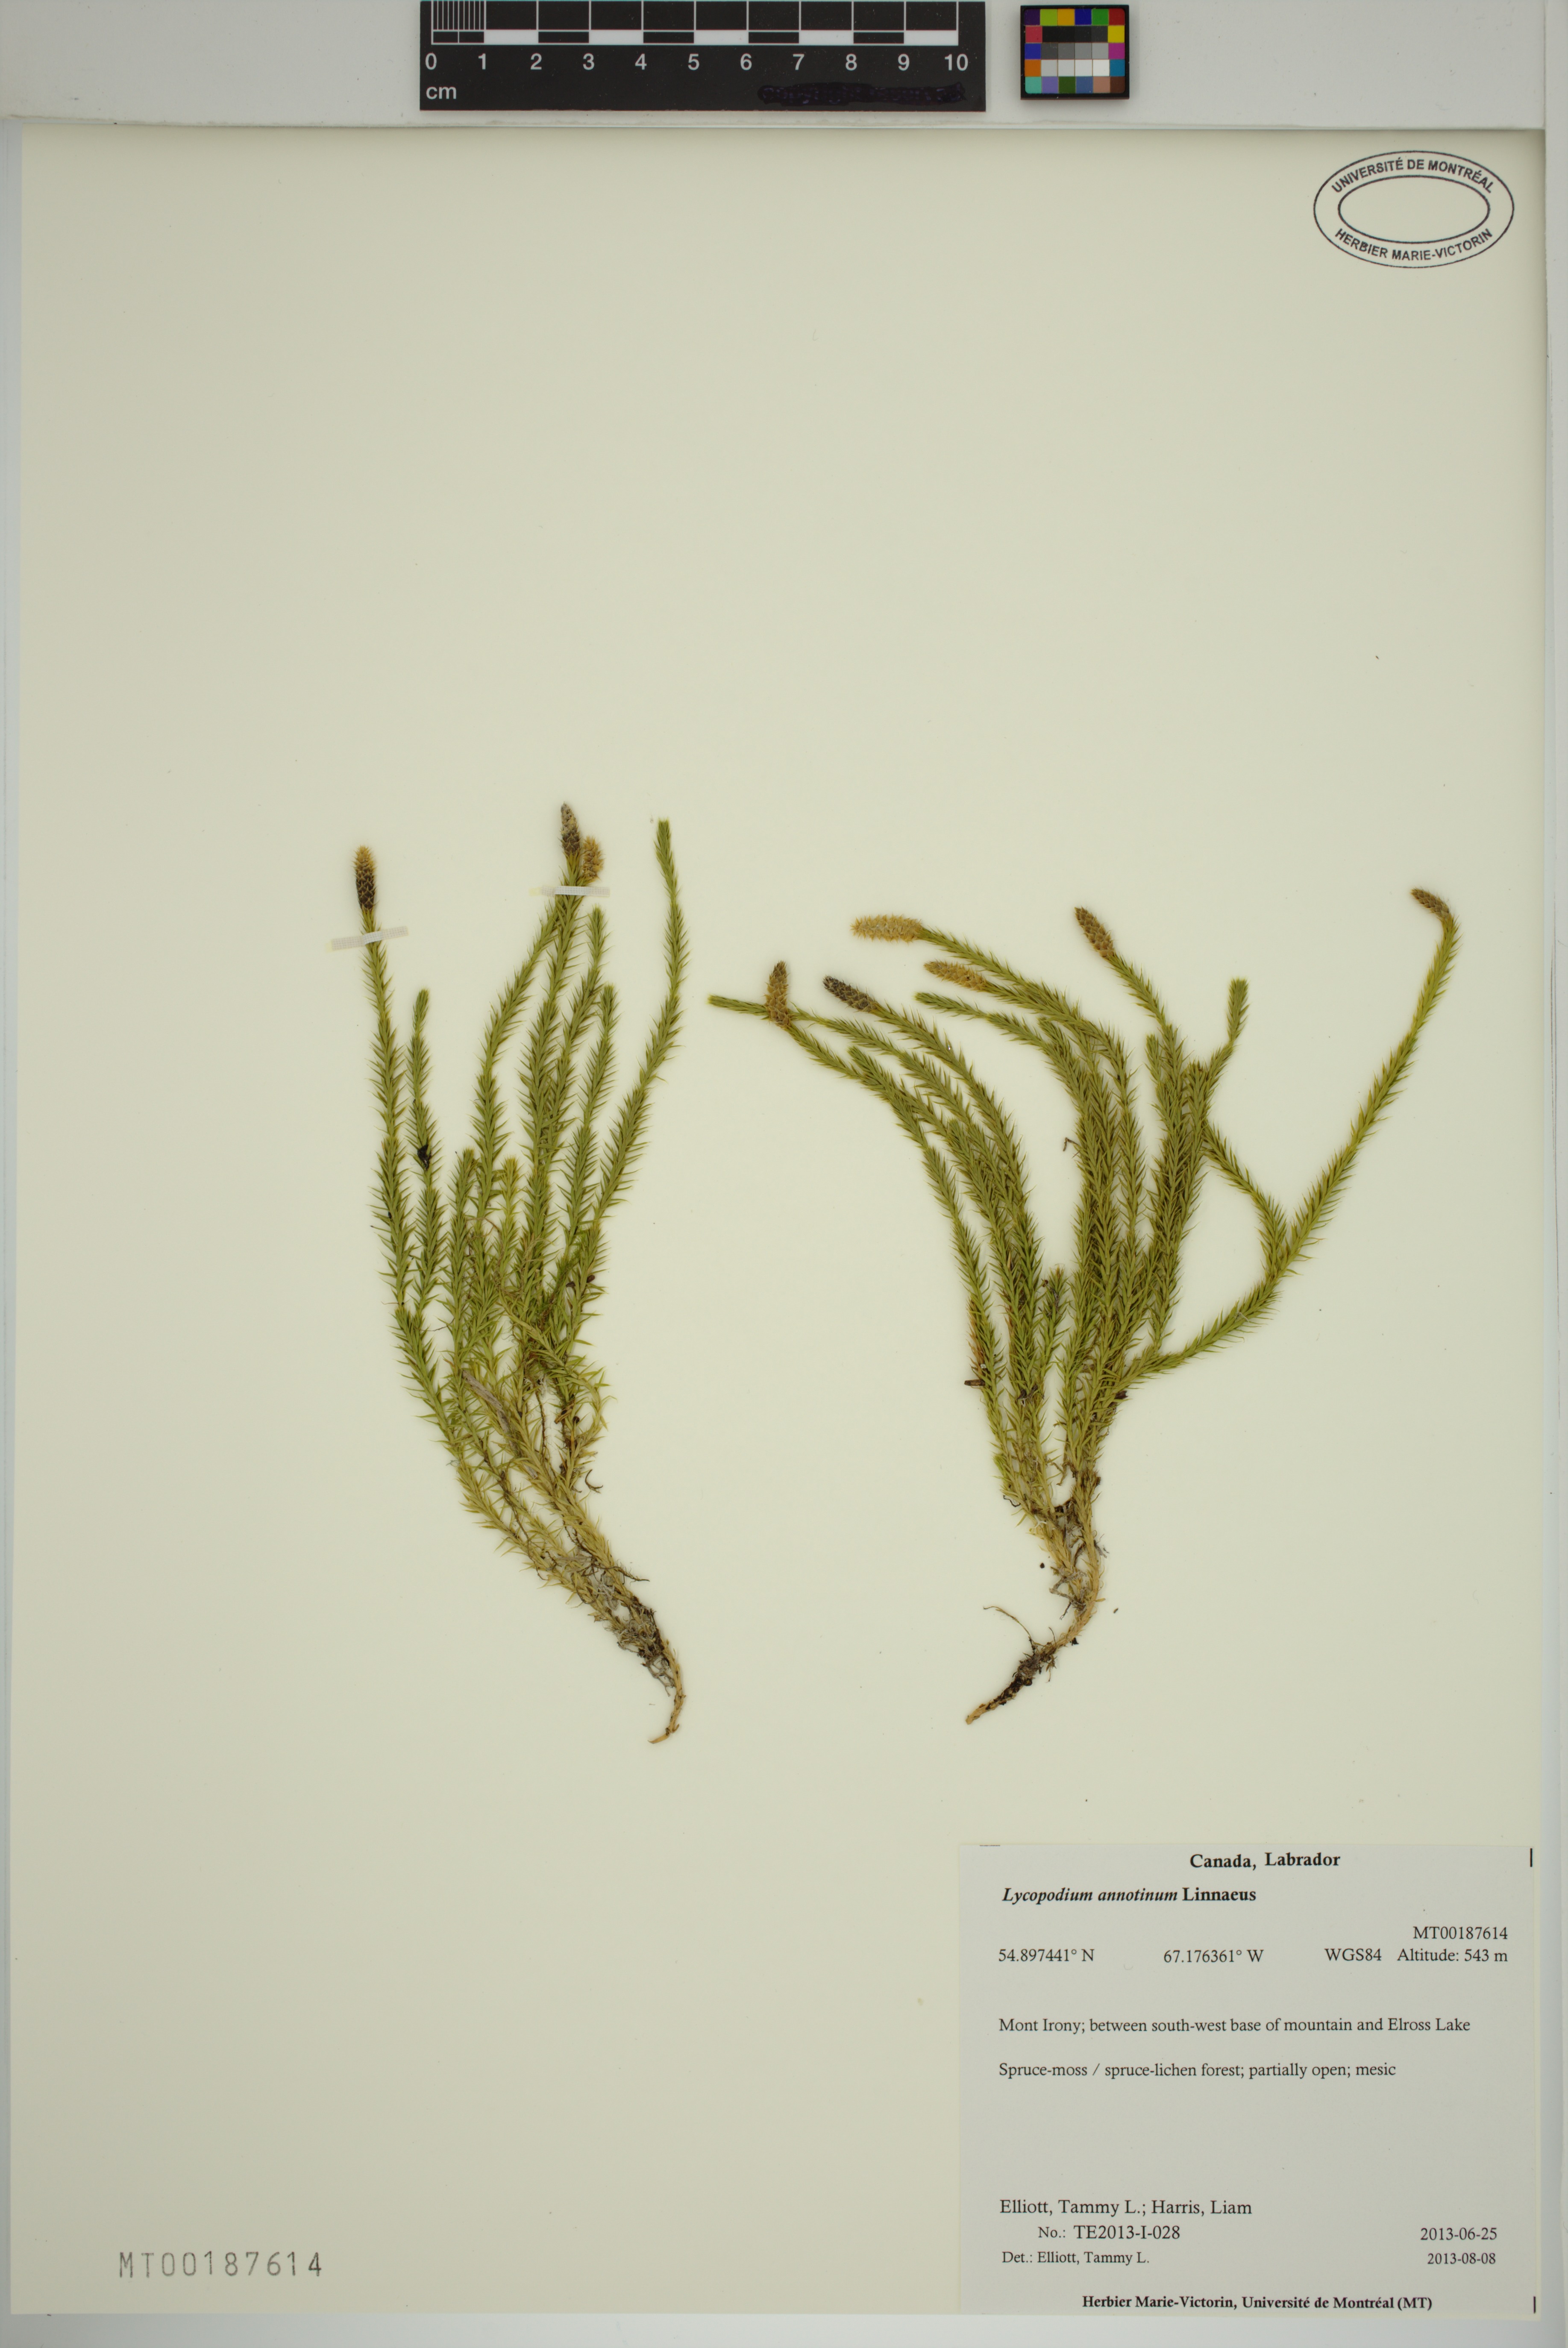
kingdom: Plantae
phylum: Tracheophyta
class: Lycopodiopsida
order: Lycopodiales
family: Lycopodiaceae
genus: Spinulum
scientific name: Spinulum annotinum
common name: Interrupted club-moss
